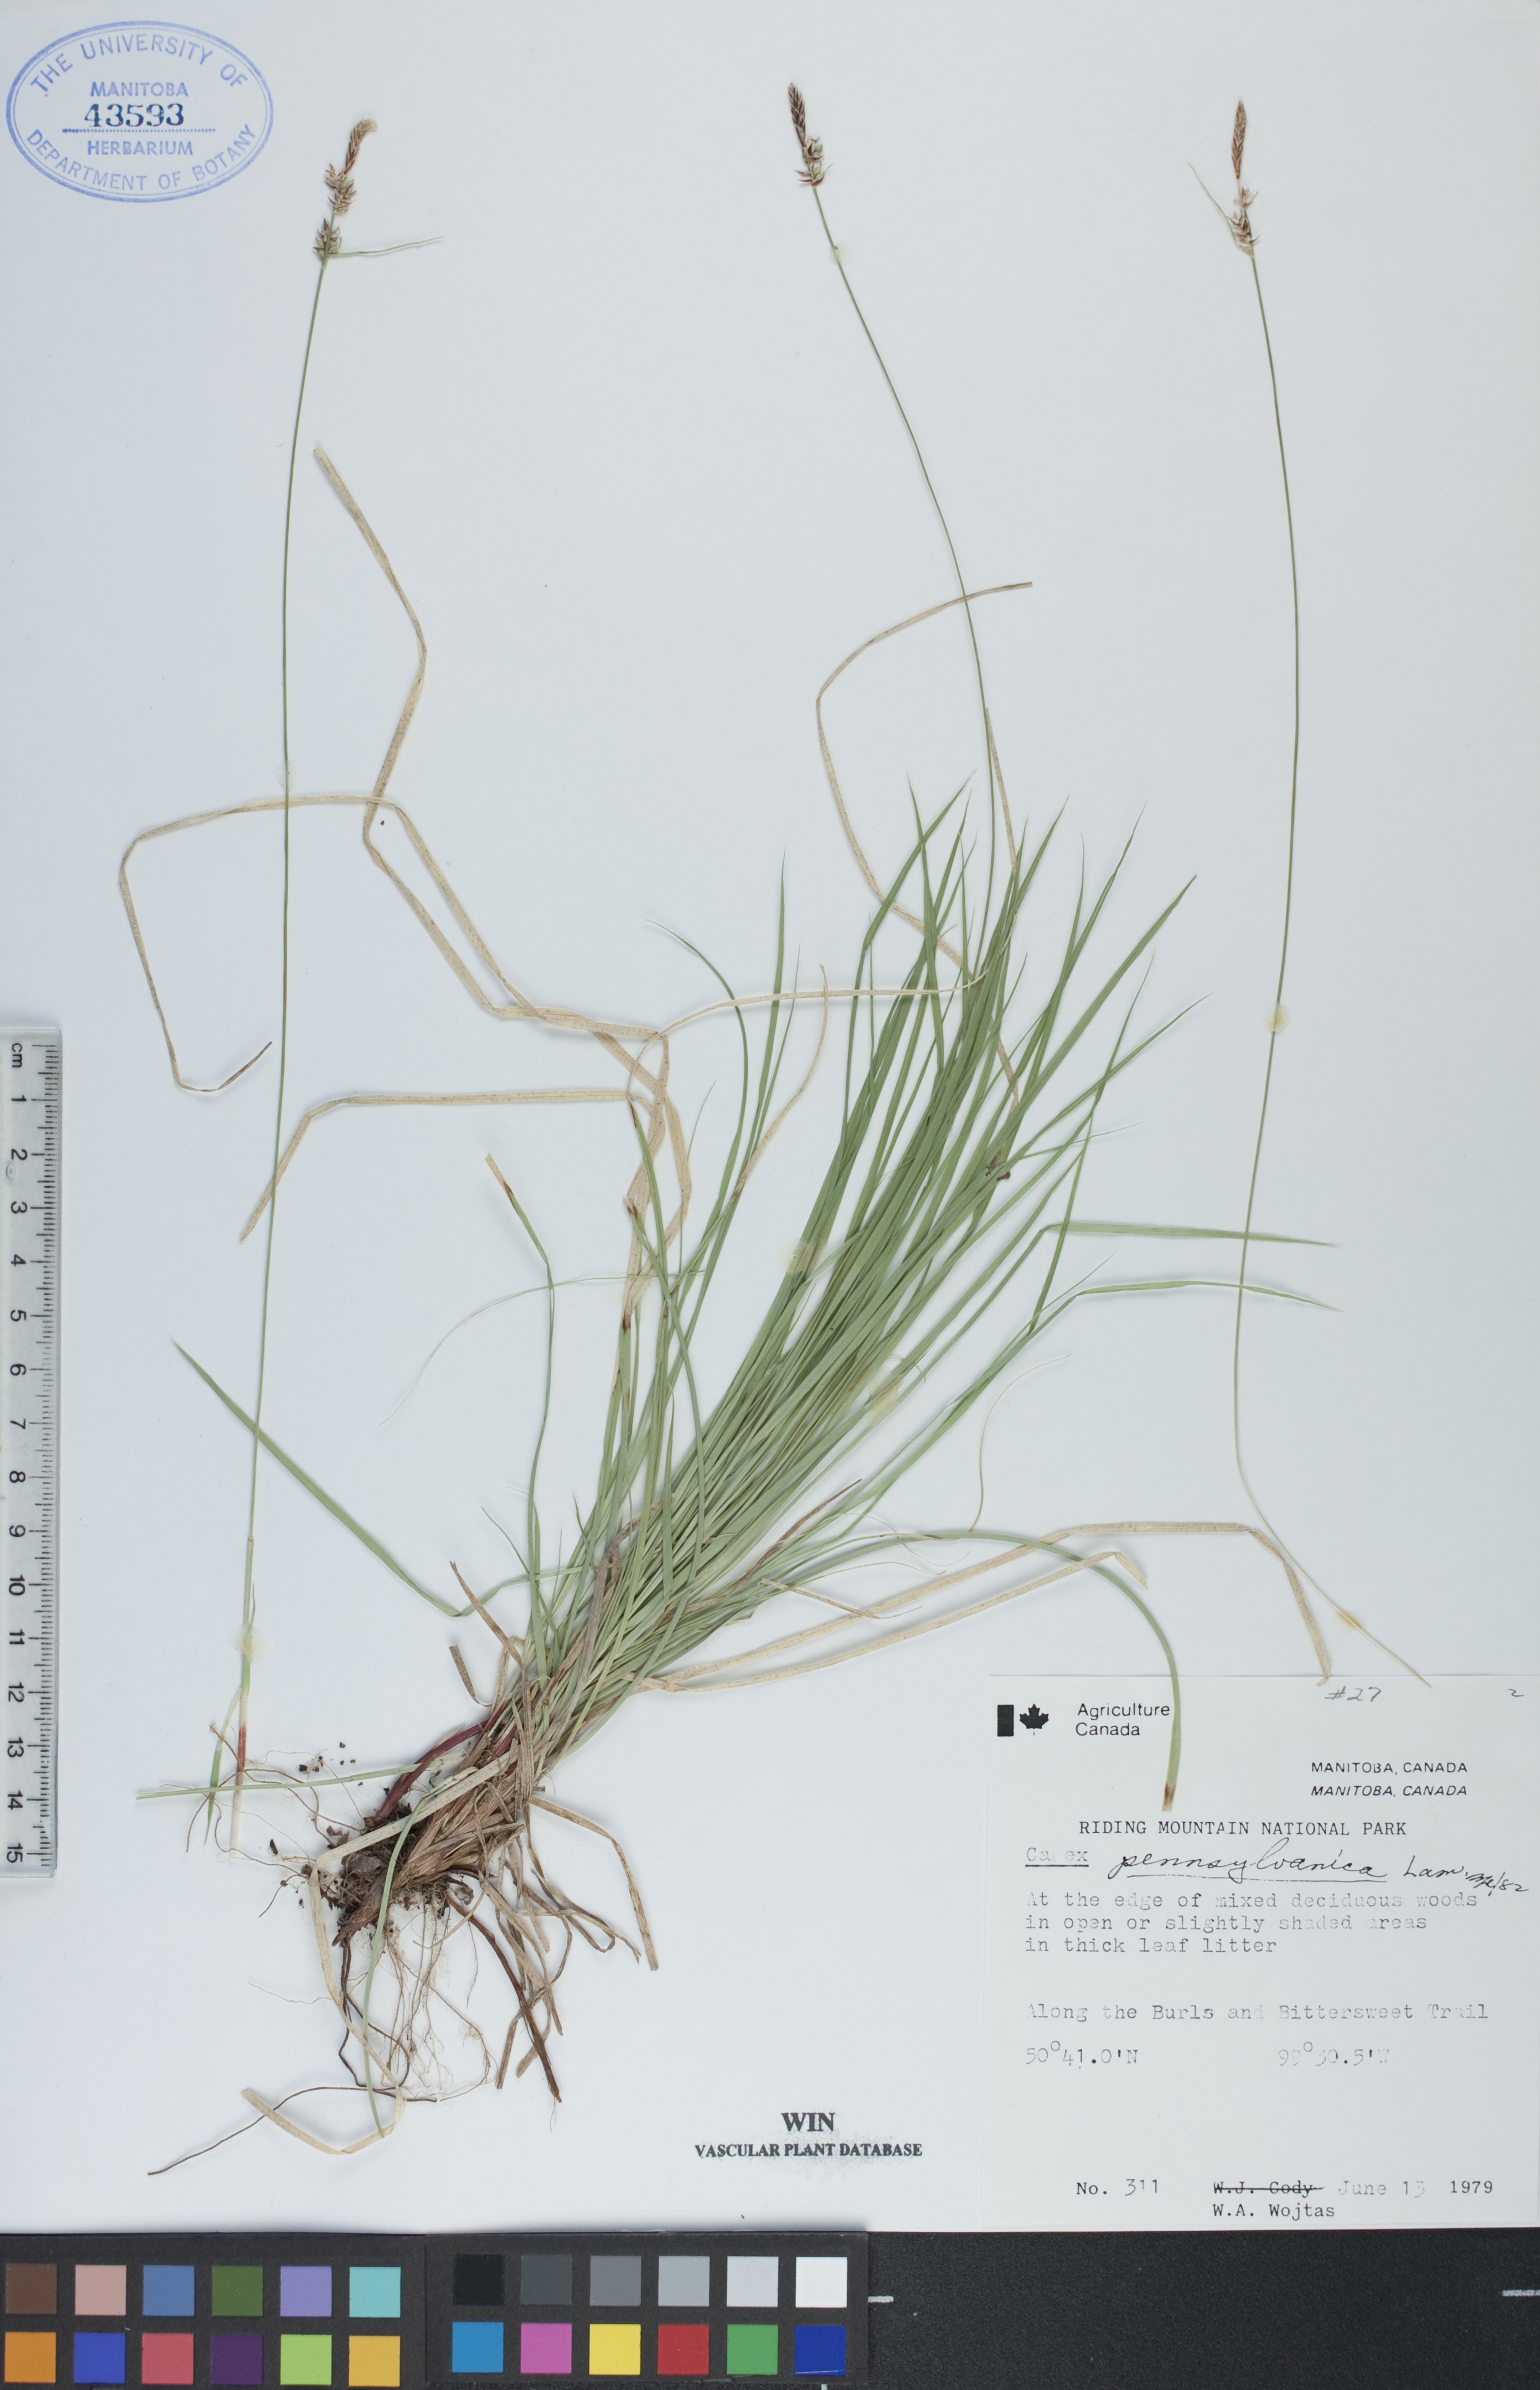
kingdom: Plantae
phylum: Tracheophyta
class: Liliopsida
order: Poales
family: Cyperaceae
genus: Carex
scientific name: Carex pensylvanica
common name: Common oak sedge
